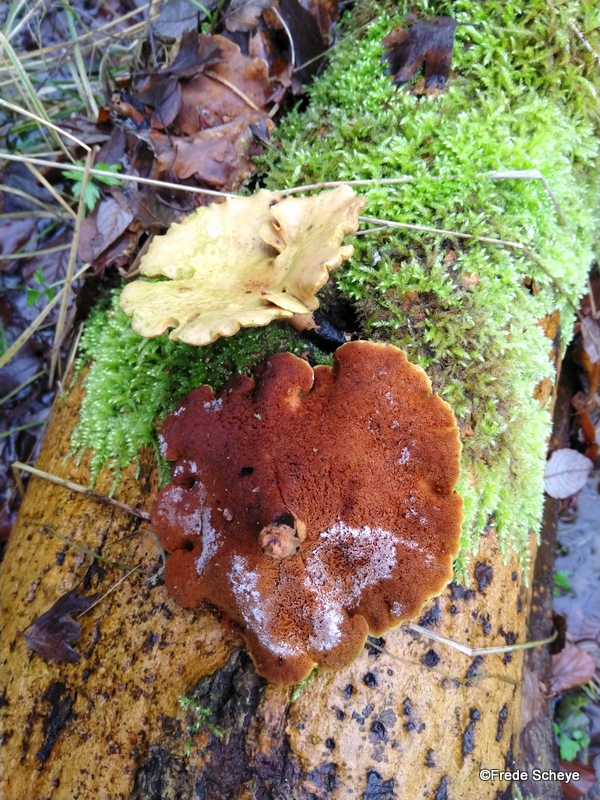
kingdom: Fungi
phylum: Basidiomycota
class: Agaricomycetes
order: Polyporales
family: Polyporaceae
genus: Cerioporus
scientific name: Cerioporus varius
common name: foranderlig stilkporesvamp
